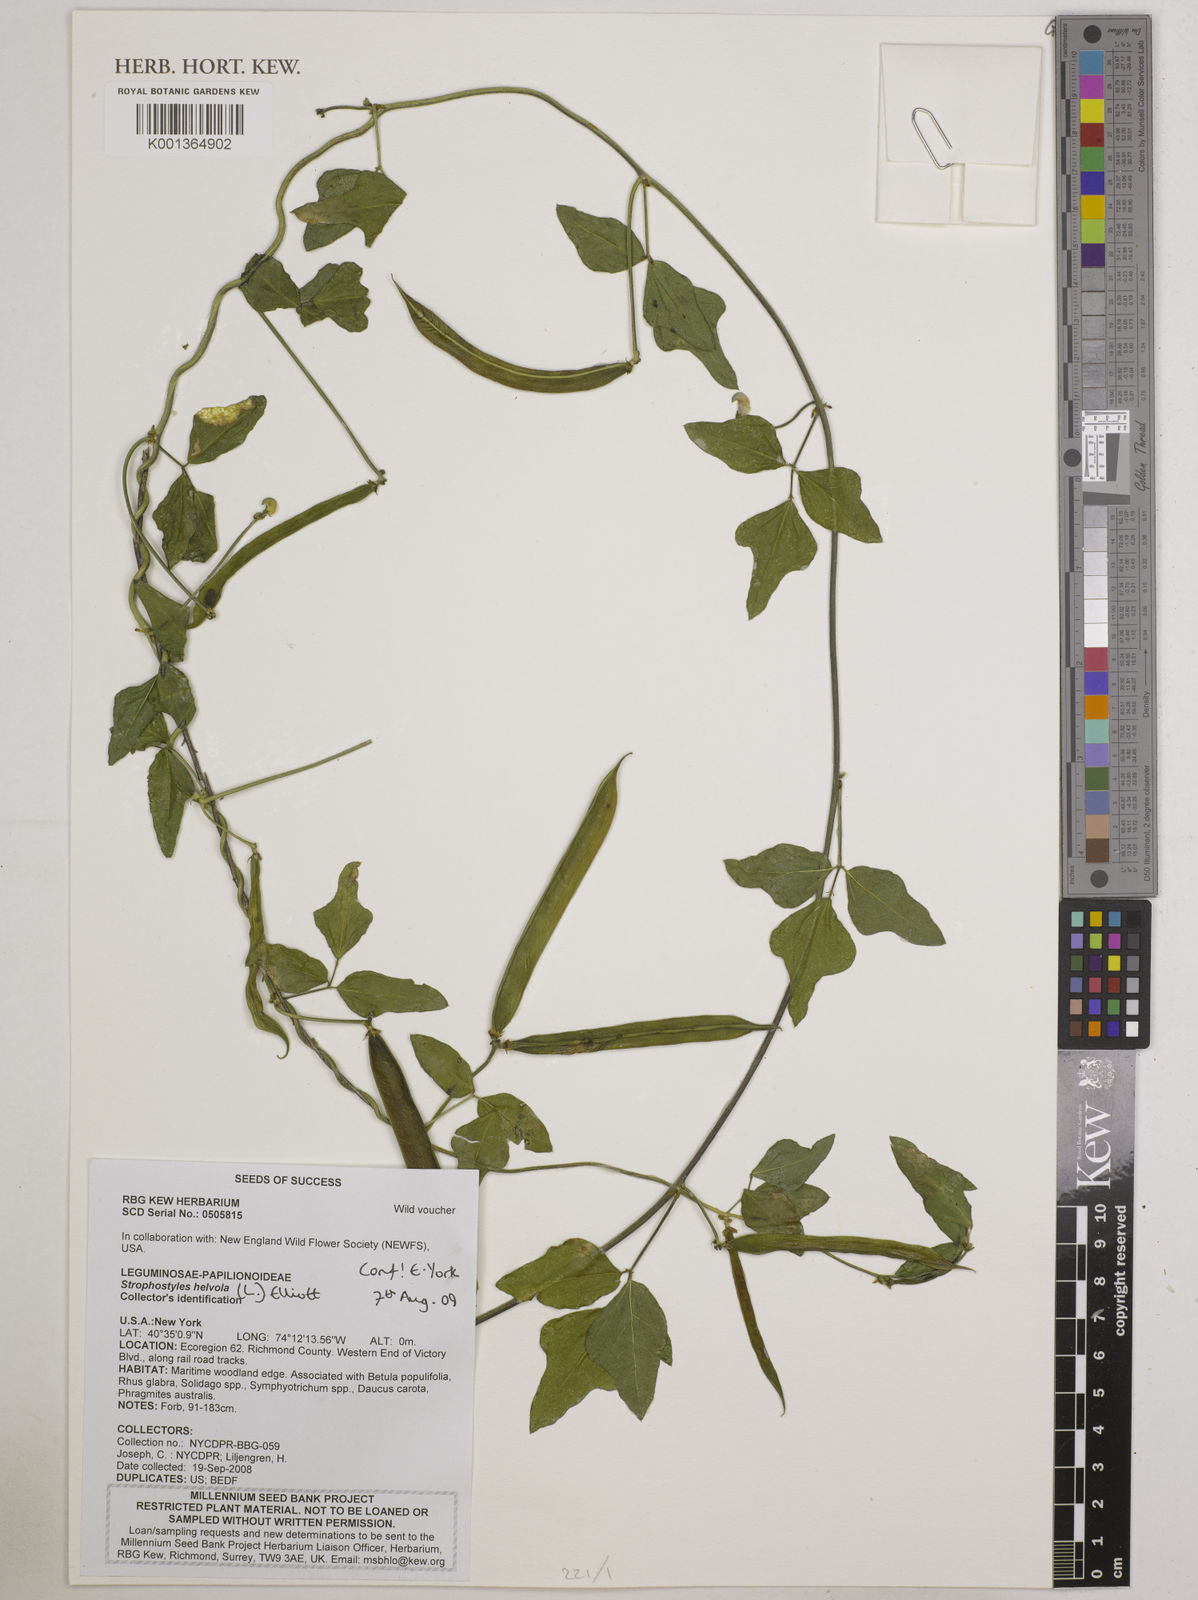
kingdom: Plantae
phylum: Tracheophyta
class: Magnoliopsida
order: Fabales
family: Fabaceae
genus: Strophostyles
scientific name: Strophostyles
